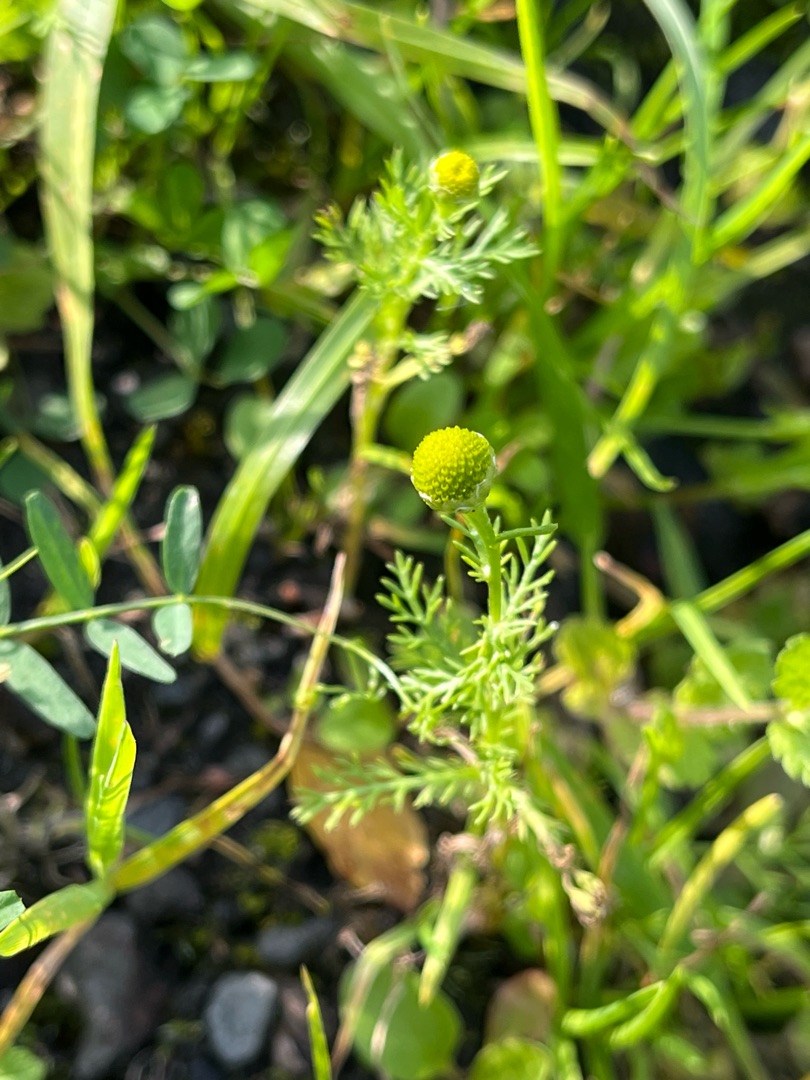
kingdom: Plantae
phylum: Tracheophyta
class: Magnoliopsida
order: Asterales
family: Asteraceae
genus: Matricaria
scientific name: Matricaria discoidea
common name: Skive-kamille
